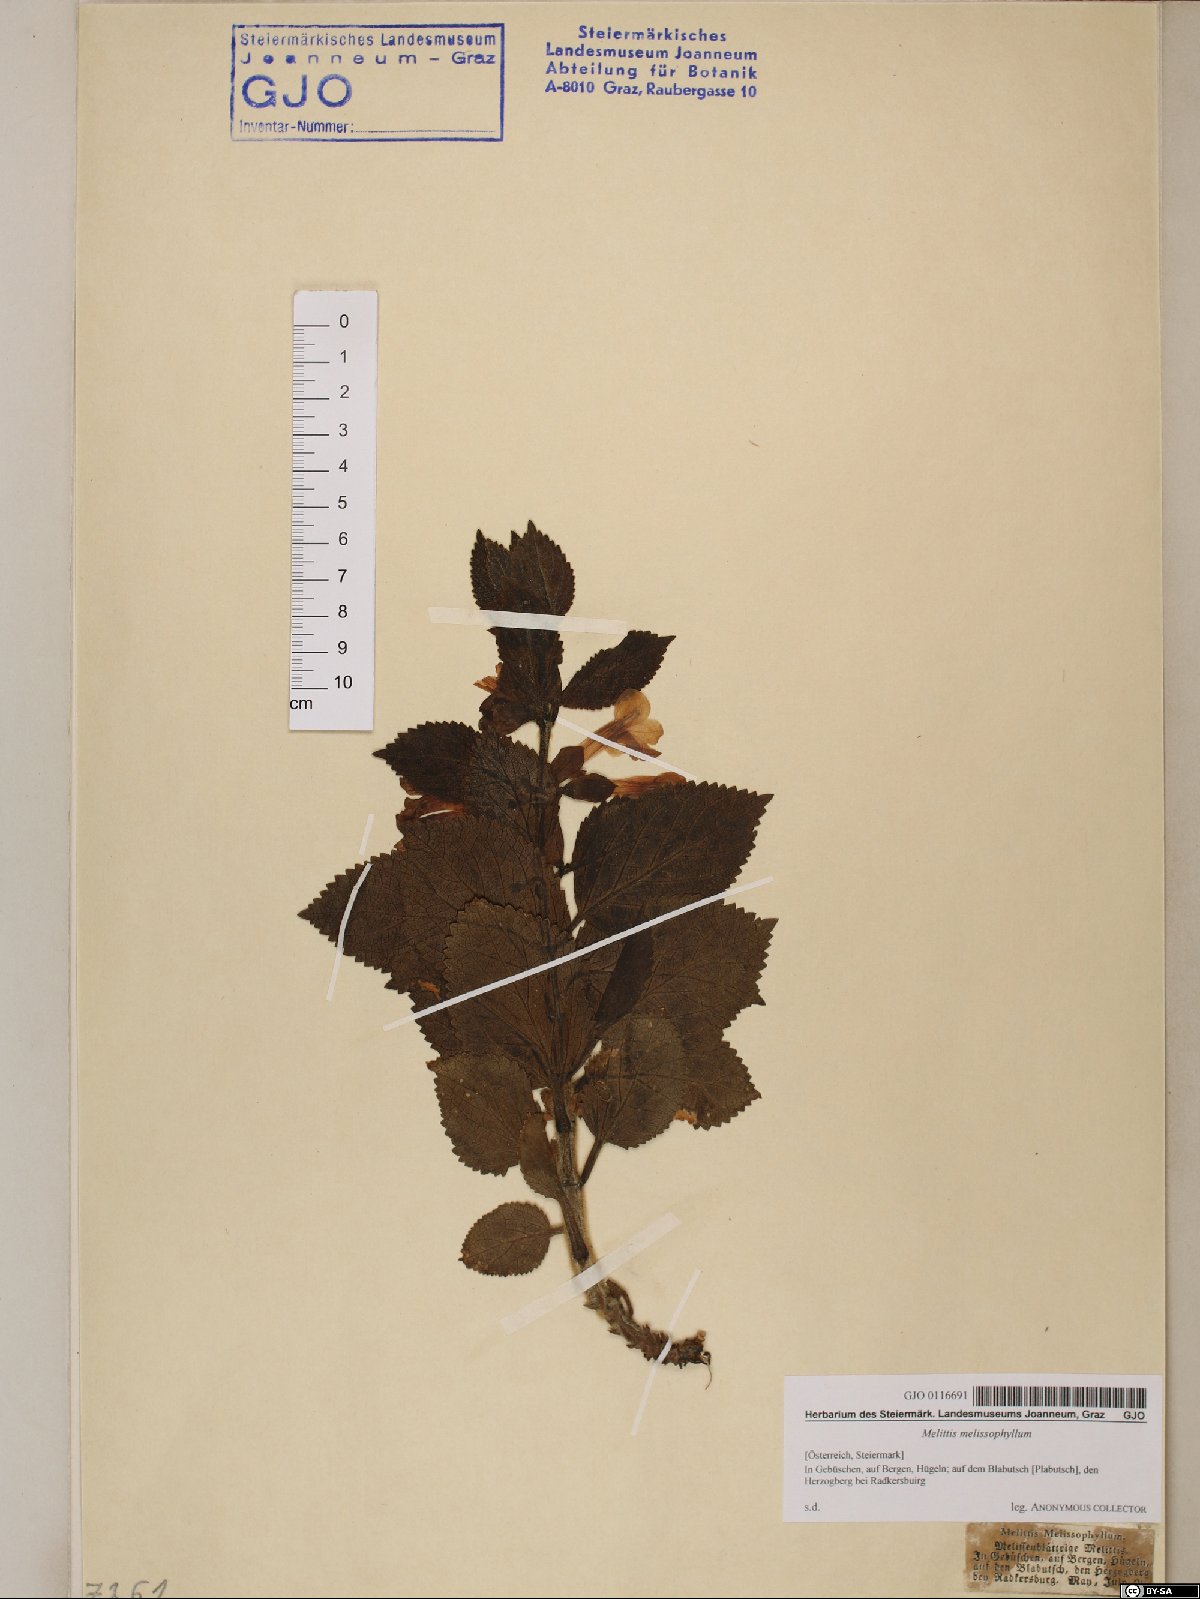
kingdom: Plantae
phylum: Tracheophyta
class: Magnoliopsida
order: Lamiales
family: Lamiaceae
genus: Melittis
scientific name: Melittis melissophyllum
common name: Bastard balm
